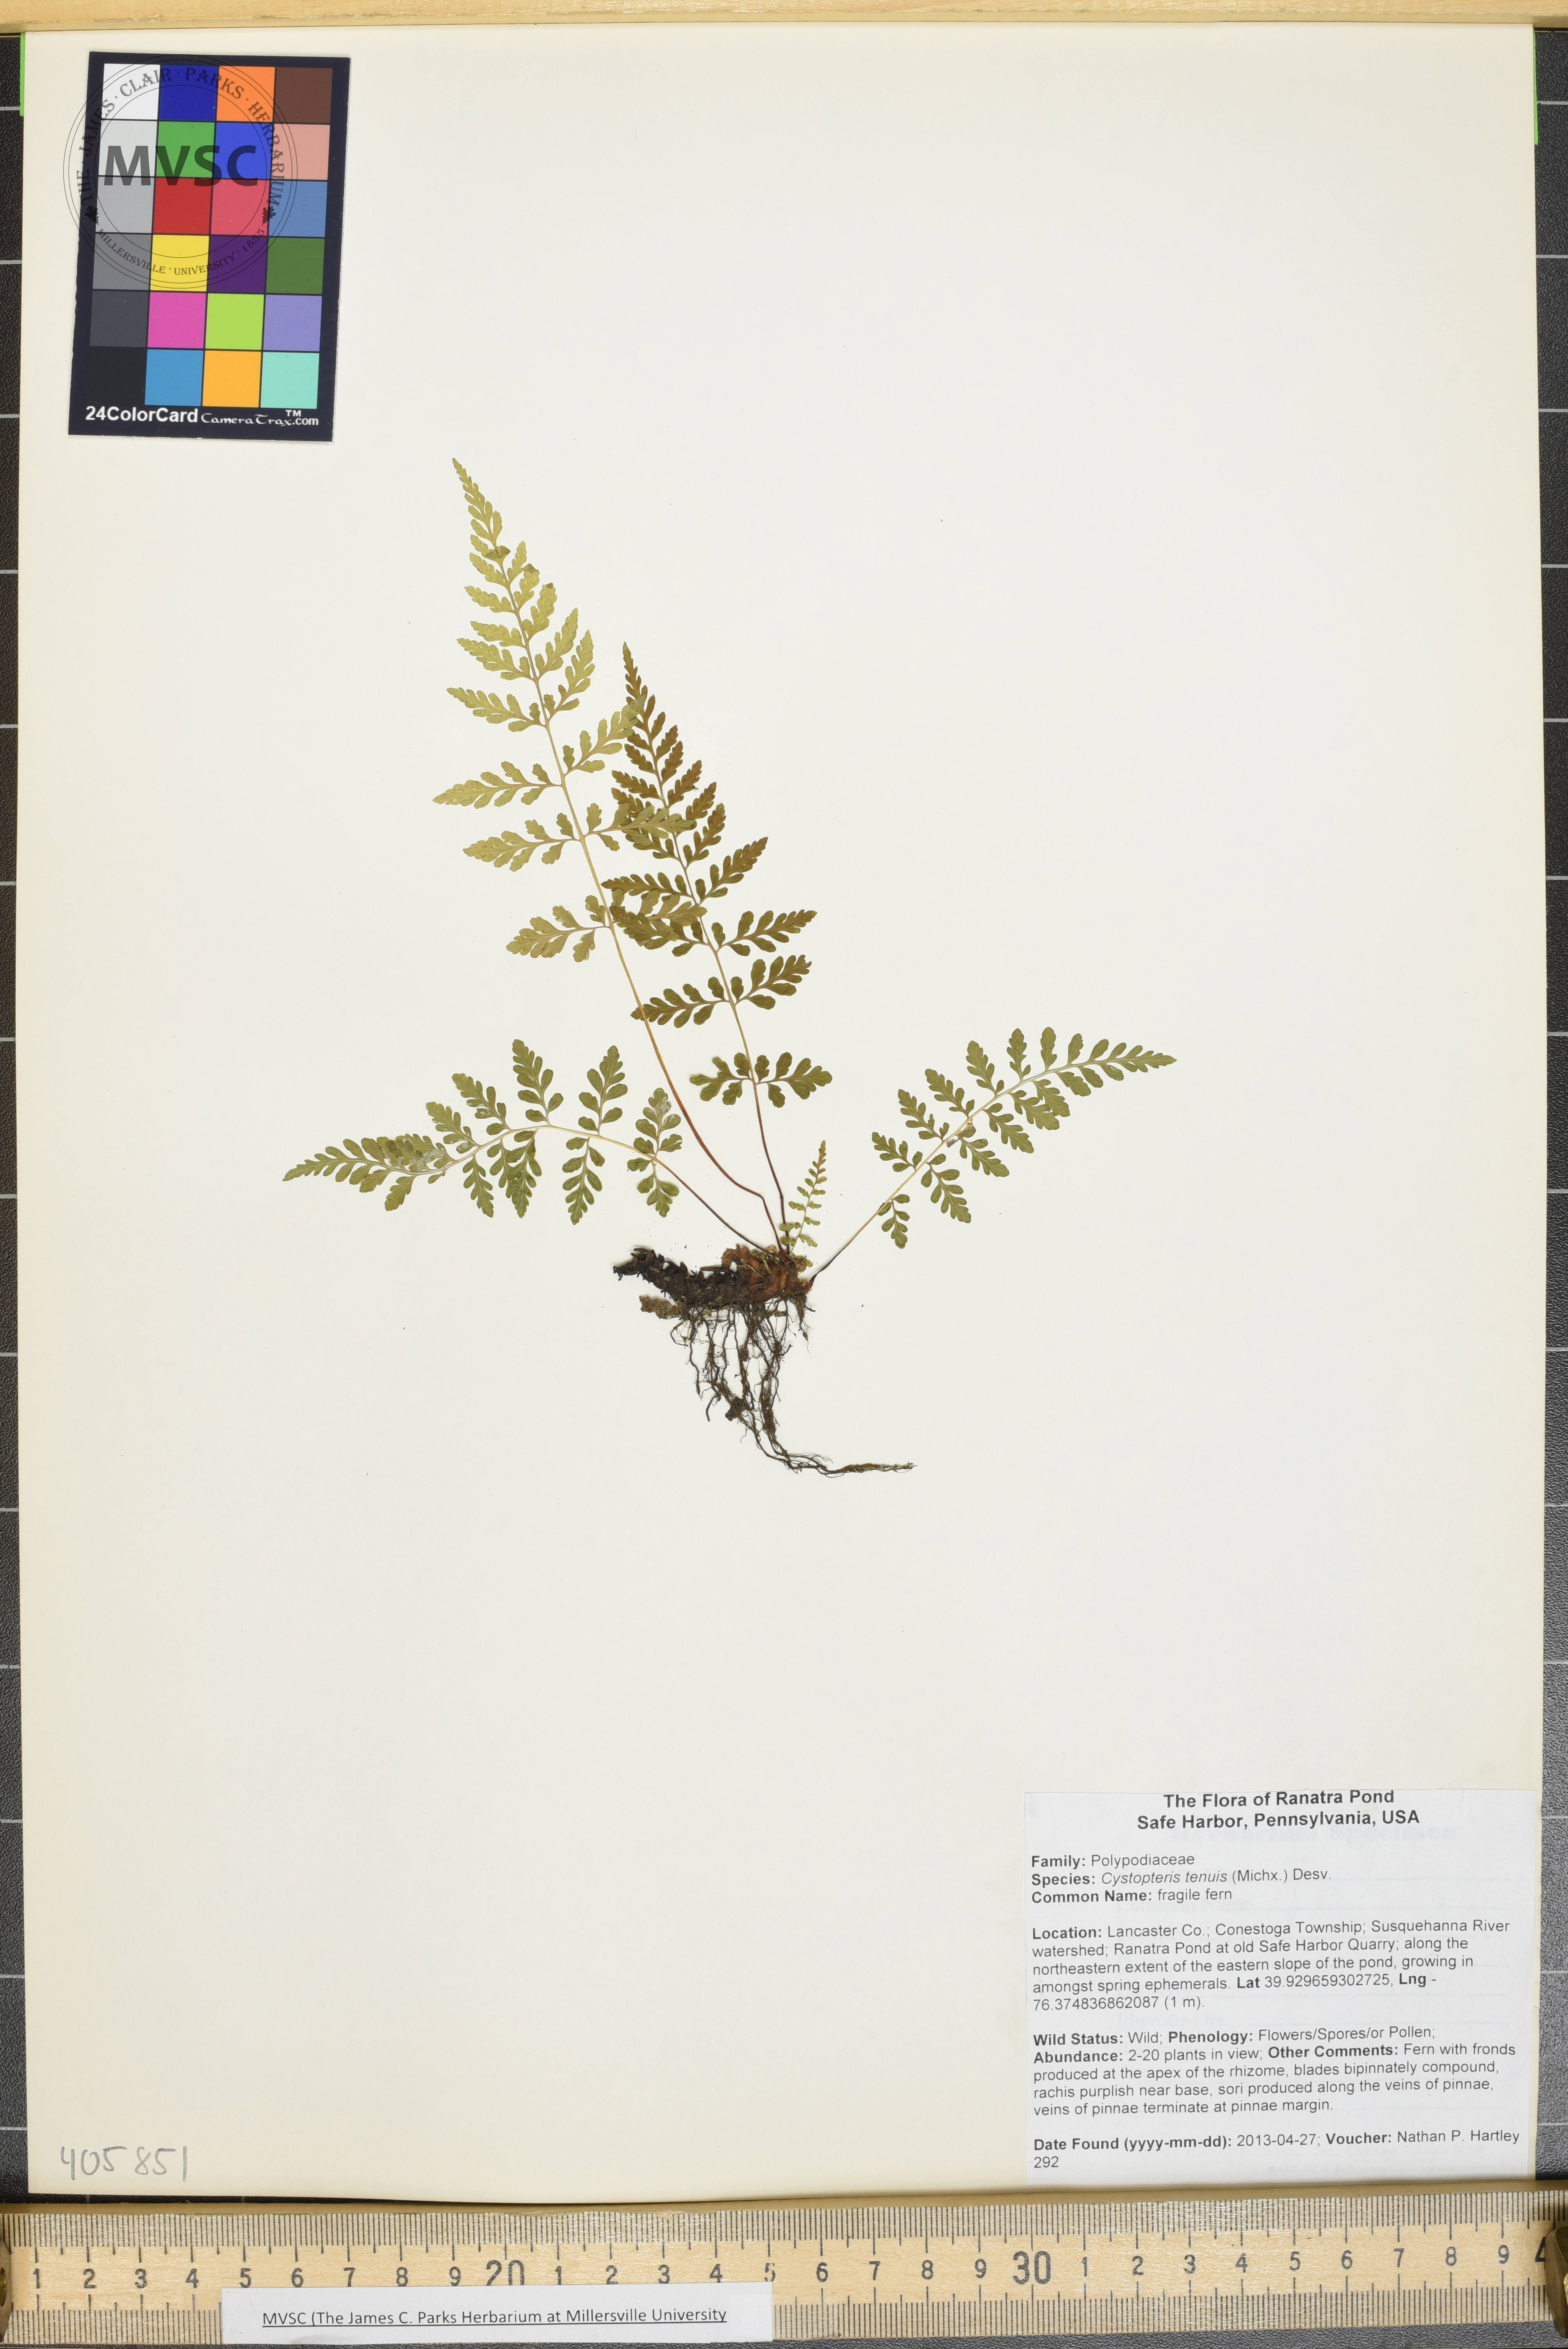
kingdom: Plantae
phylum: Tracheophyta
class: Polypodiopsida
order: Polypodiales
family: Cystopteridaceae
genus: Cystopteris
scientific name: Cystopteris tenuis
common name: fragile fern
